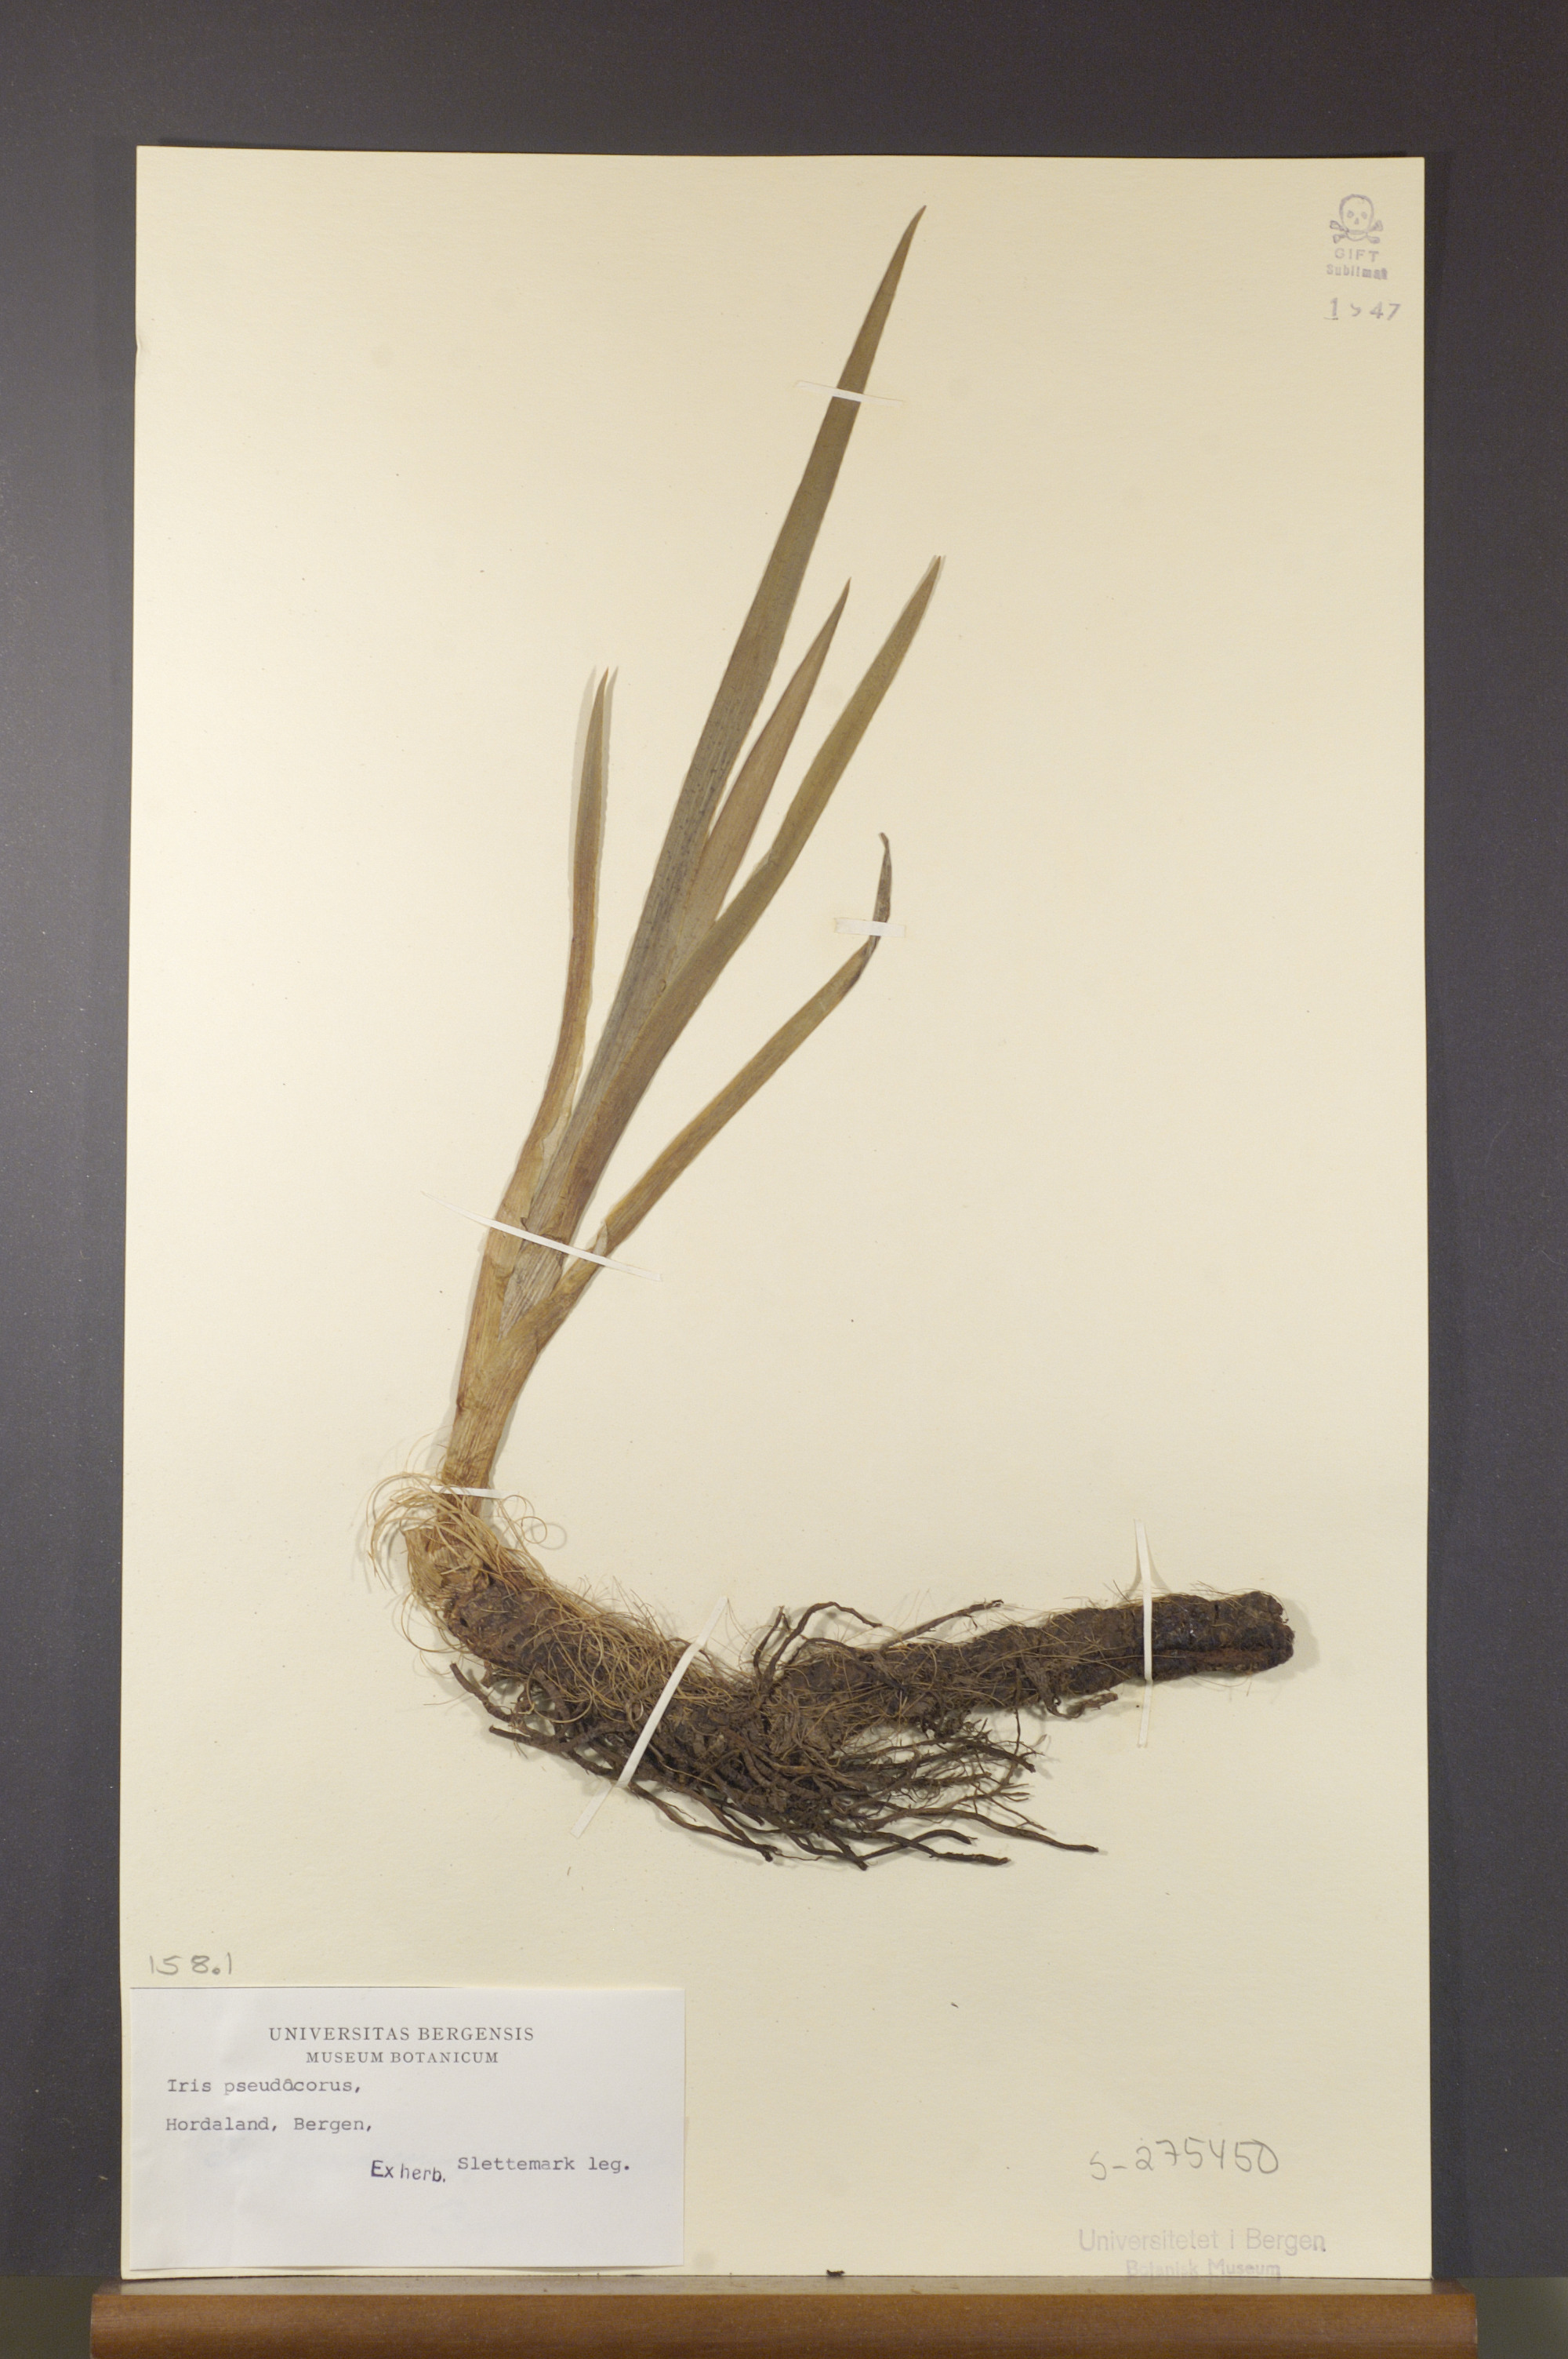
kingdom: Plantae
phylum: Tracheophyta
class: Liliopsida
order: Asparagales
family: Iridaceae
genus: Iris
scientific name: Iris pseudacorus
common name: Yellow flag
